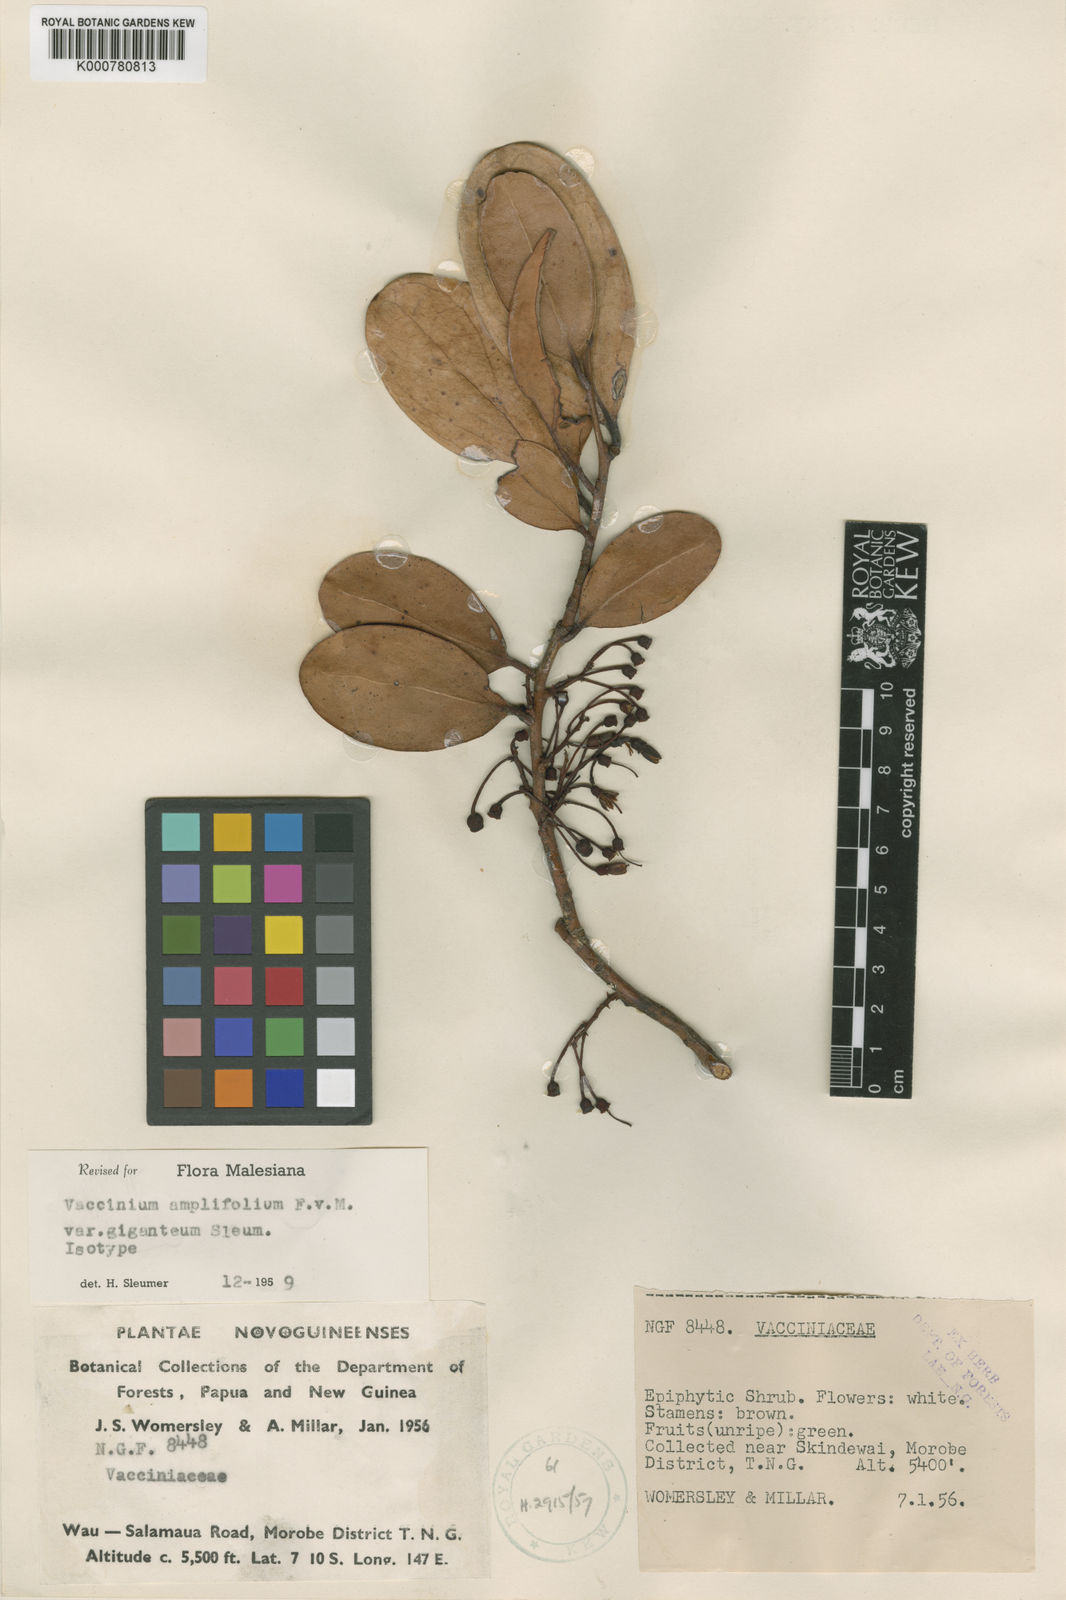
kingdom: Plantae
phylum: Tracheophyta
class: Magnoliopsida
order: Ericales
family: Ericaceae
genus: Dimorphanthera
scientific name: Dimorphanthera amplifolia
